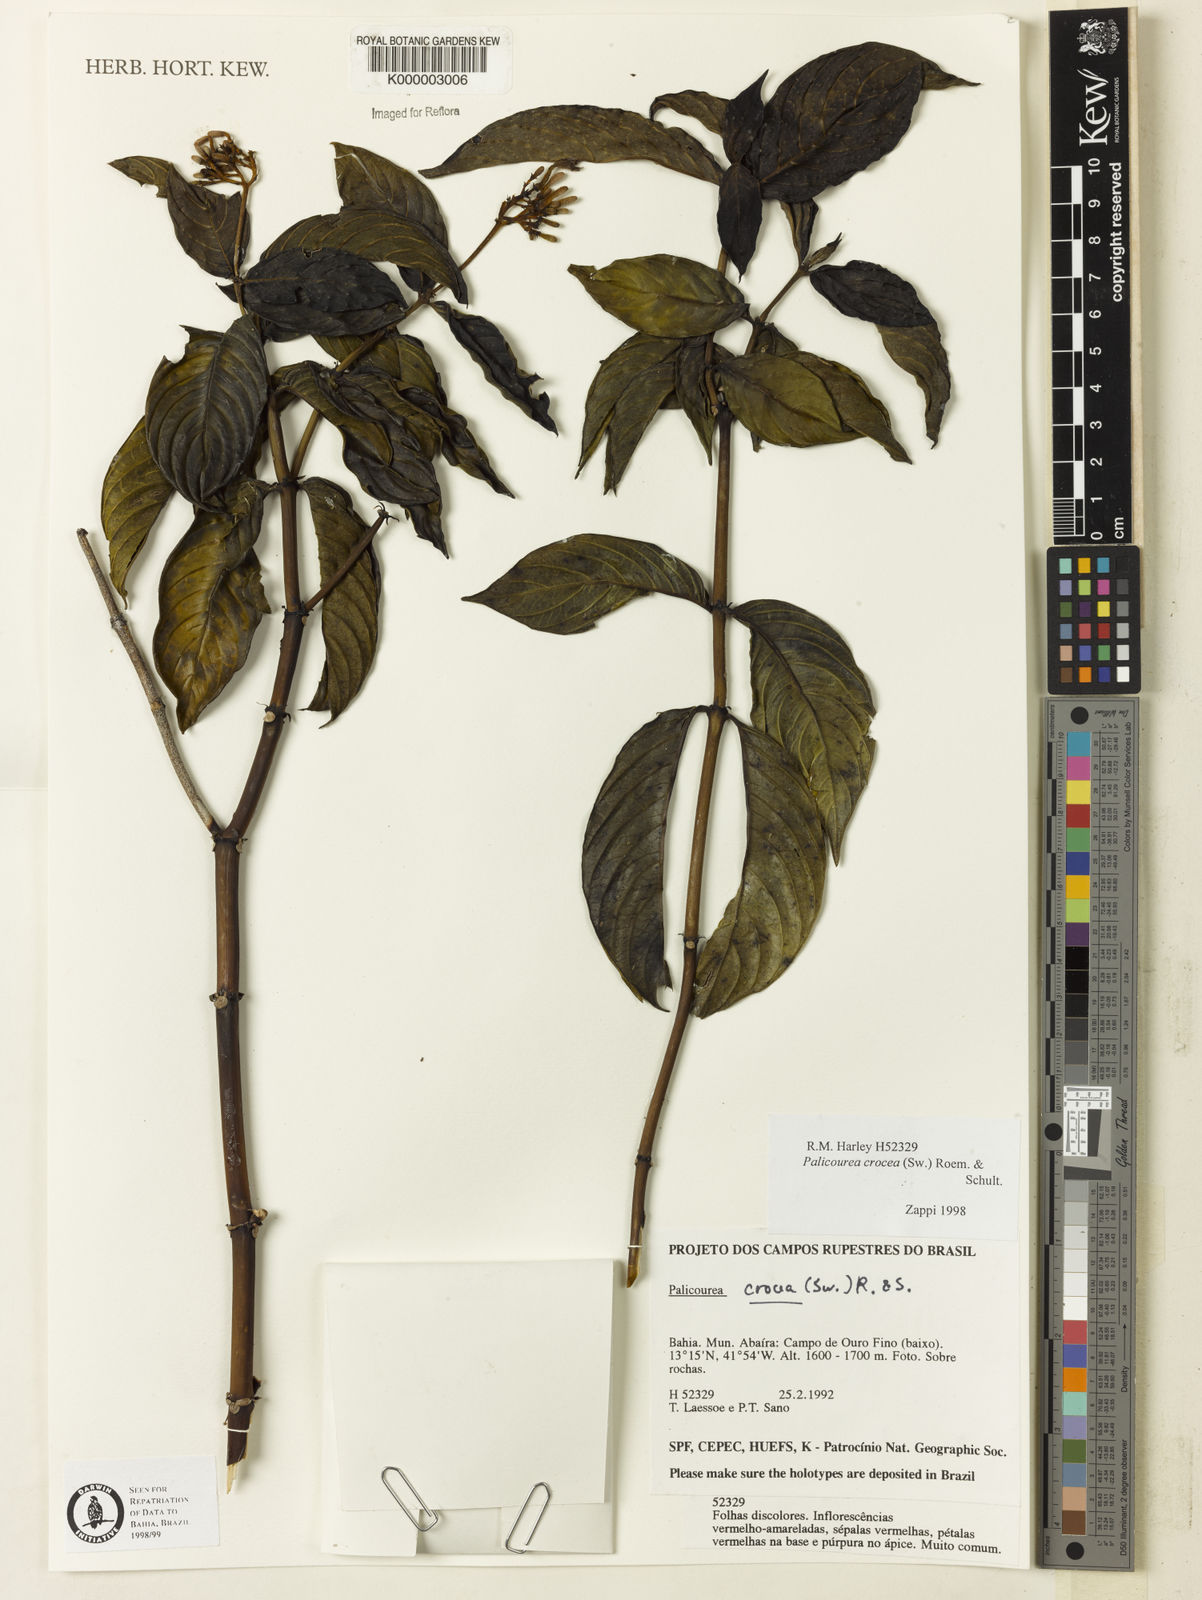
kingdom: Plantae
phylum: Tracheophyta
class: Magnoliopsida
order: Gentianales
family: Rubiaceae
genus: Palicourea
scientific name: Palicourea marcgravii
